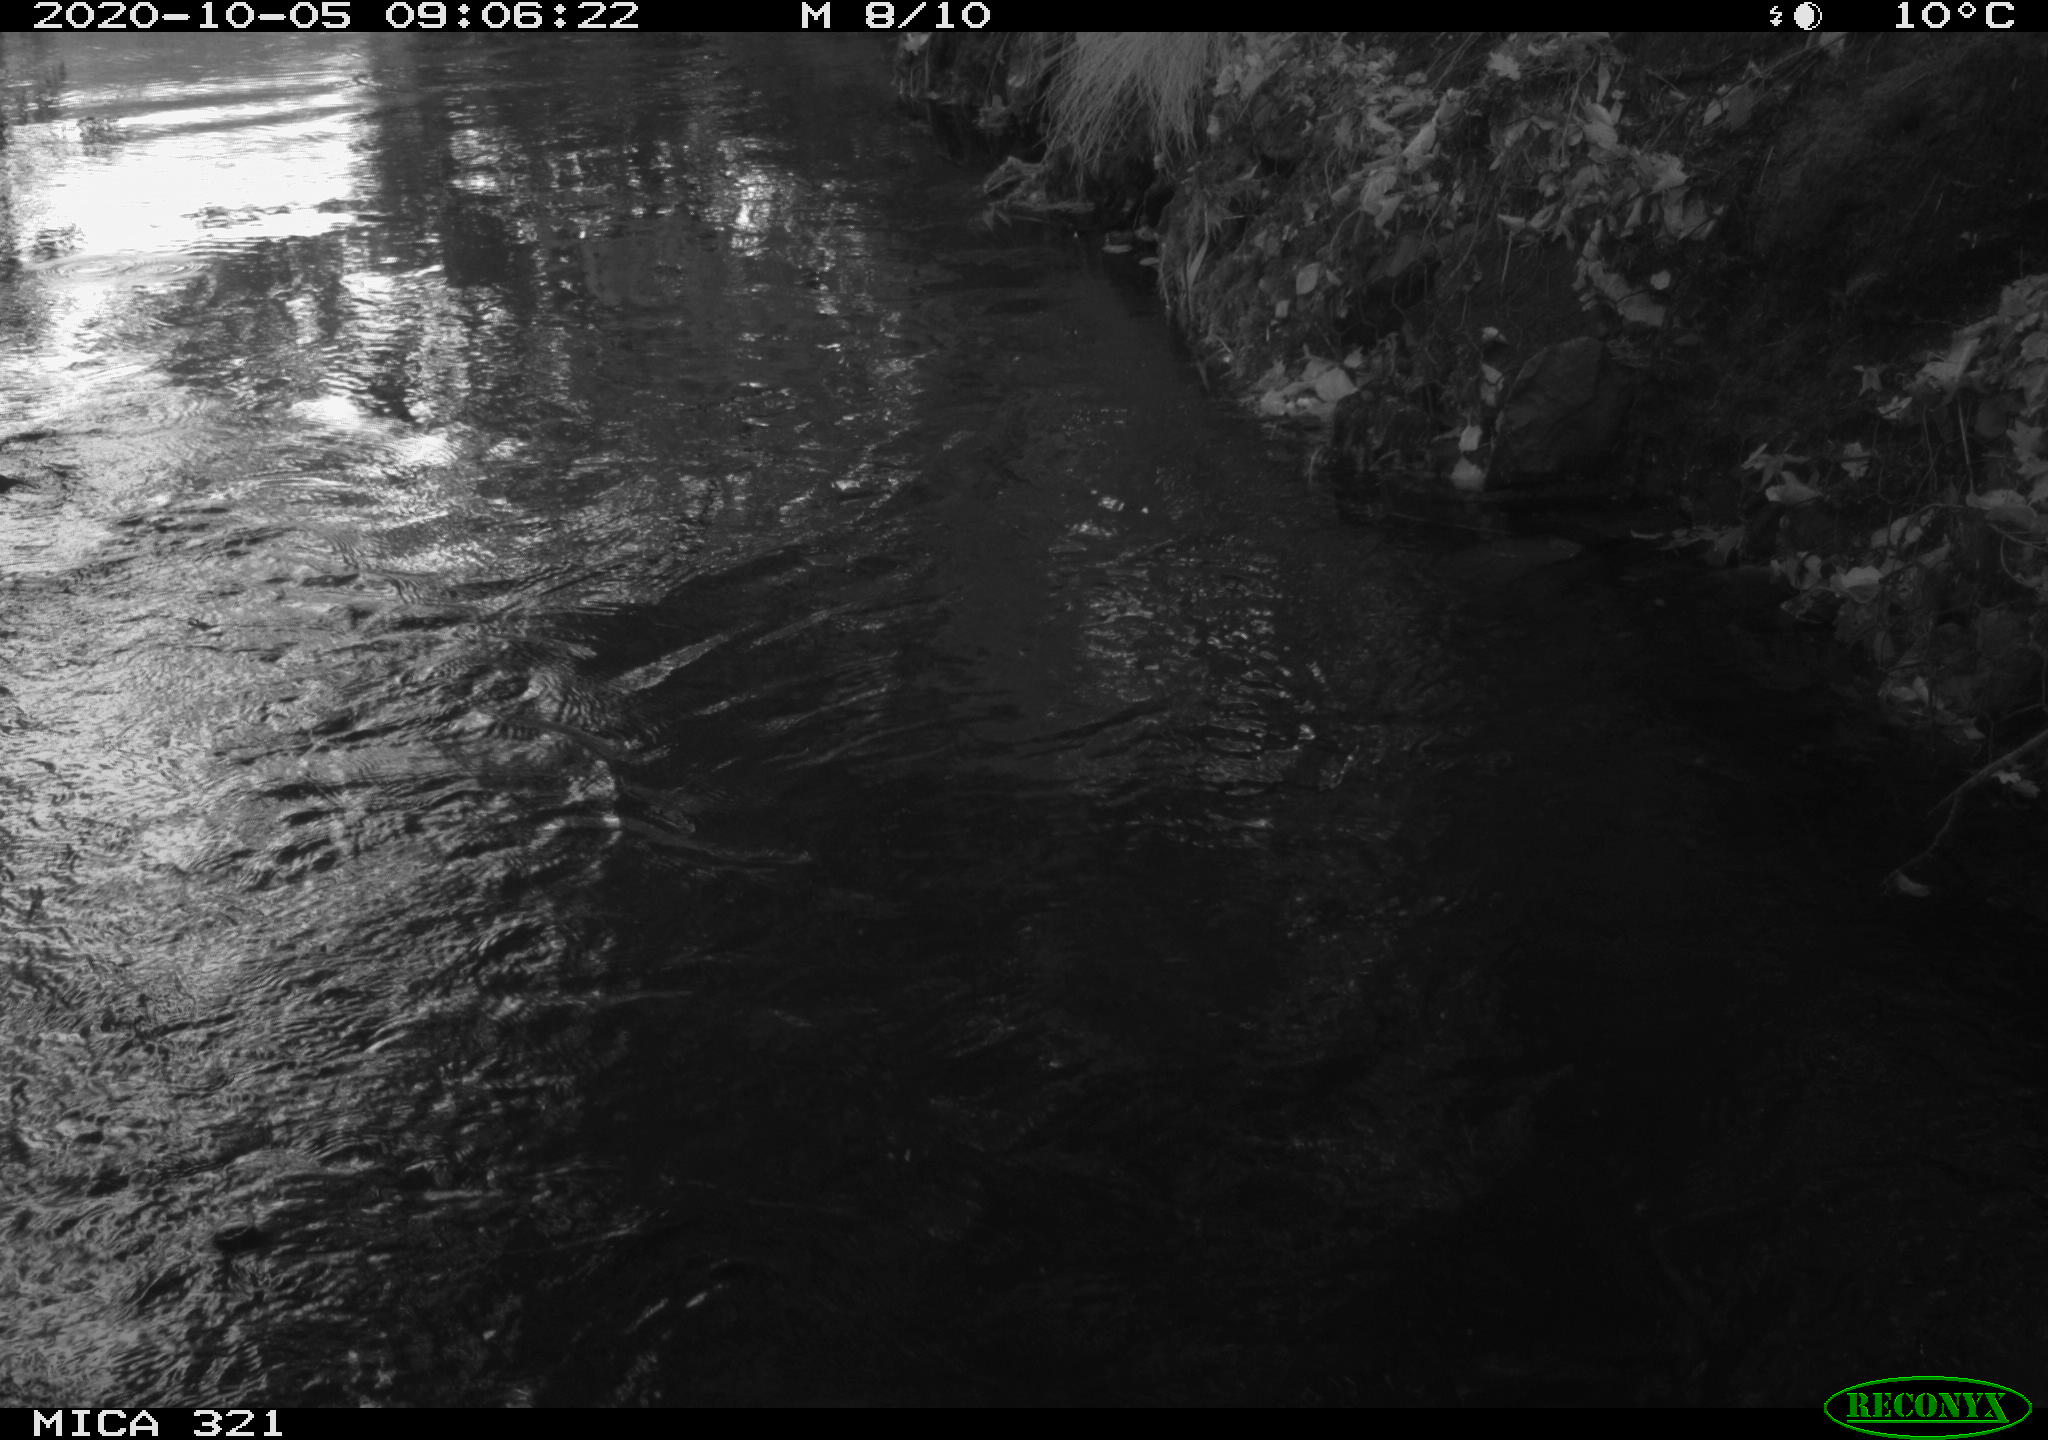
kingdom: Animalia
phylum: Chordata
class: Aves
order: Anseriformes
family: Anatidae
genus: Anas
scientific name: Anas platyrhynchos
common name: Mallard
